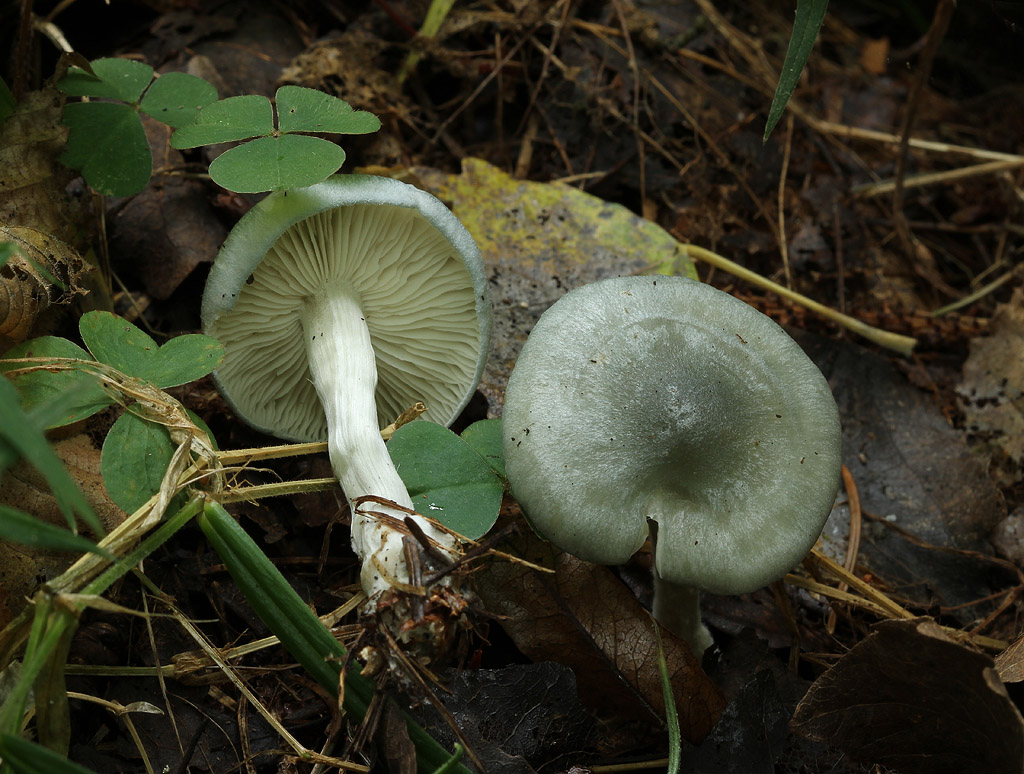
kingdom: Fungi
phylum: Basidiomycota
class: Agaricomycetes
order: Agaricales
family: Tricholomataceae
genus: Clitocybe
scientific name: Clitocybe odora
